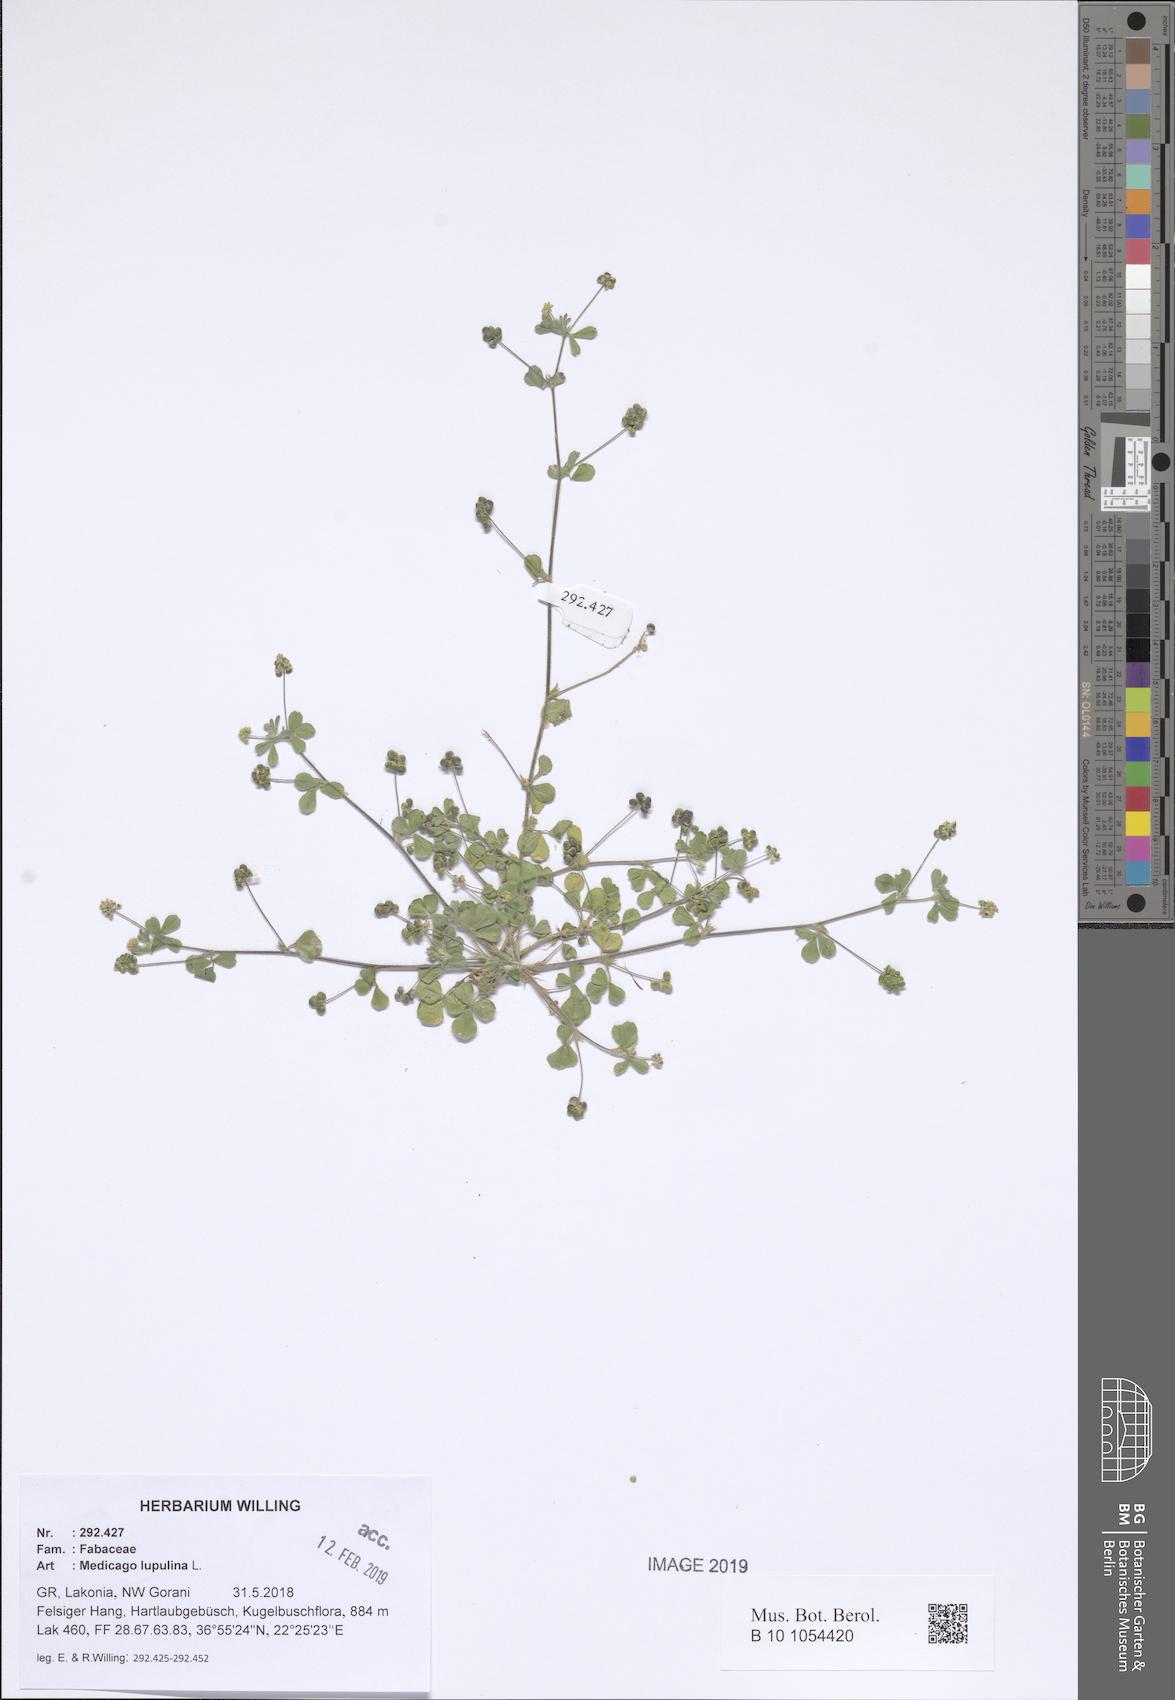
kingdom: Plantae
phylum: Tracheophyta
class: Magnoliopsida
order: Fabales
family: Fabaceae
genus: Medicago
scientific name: Medicago lupulina
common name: Black medick
